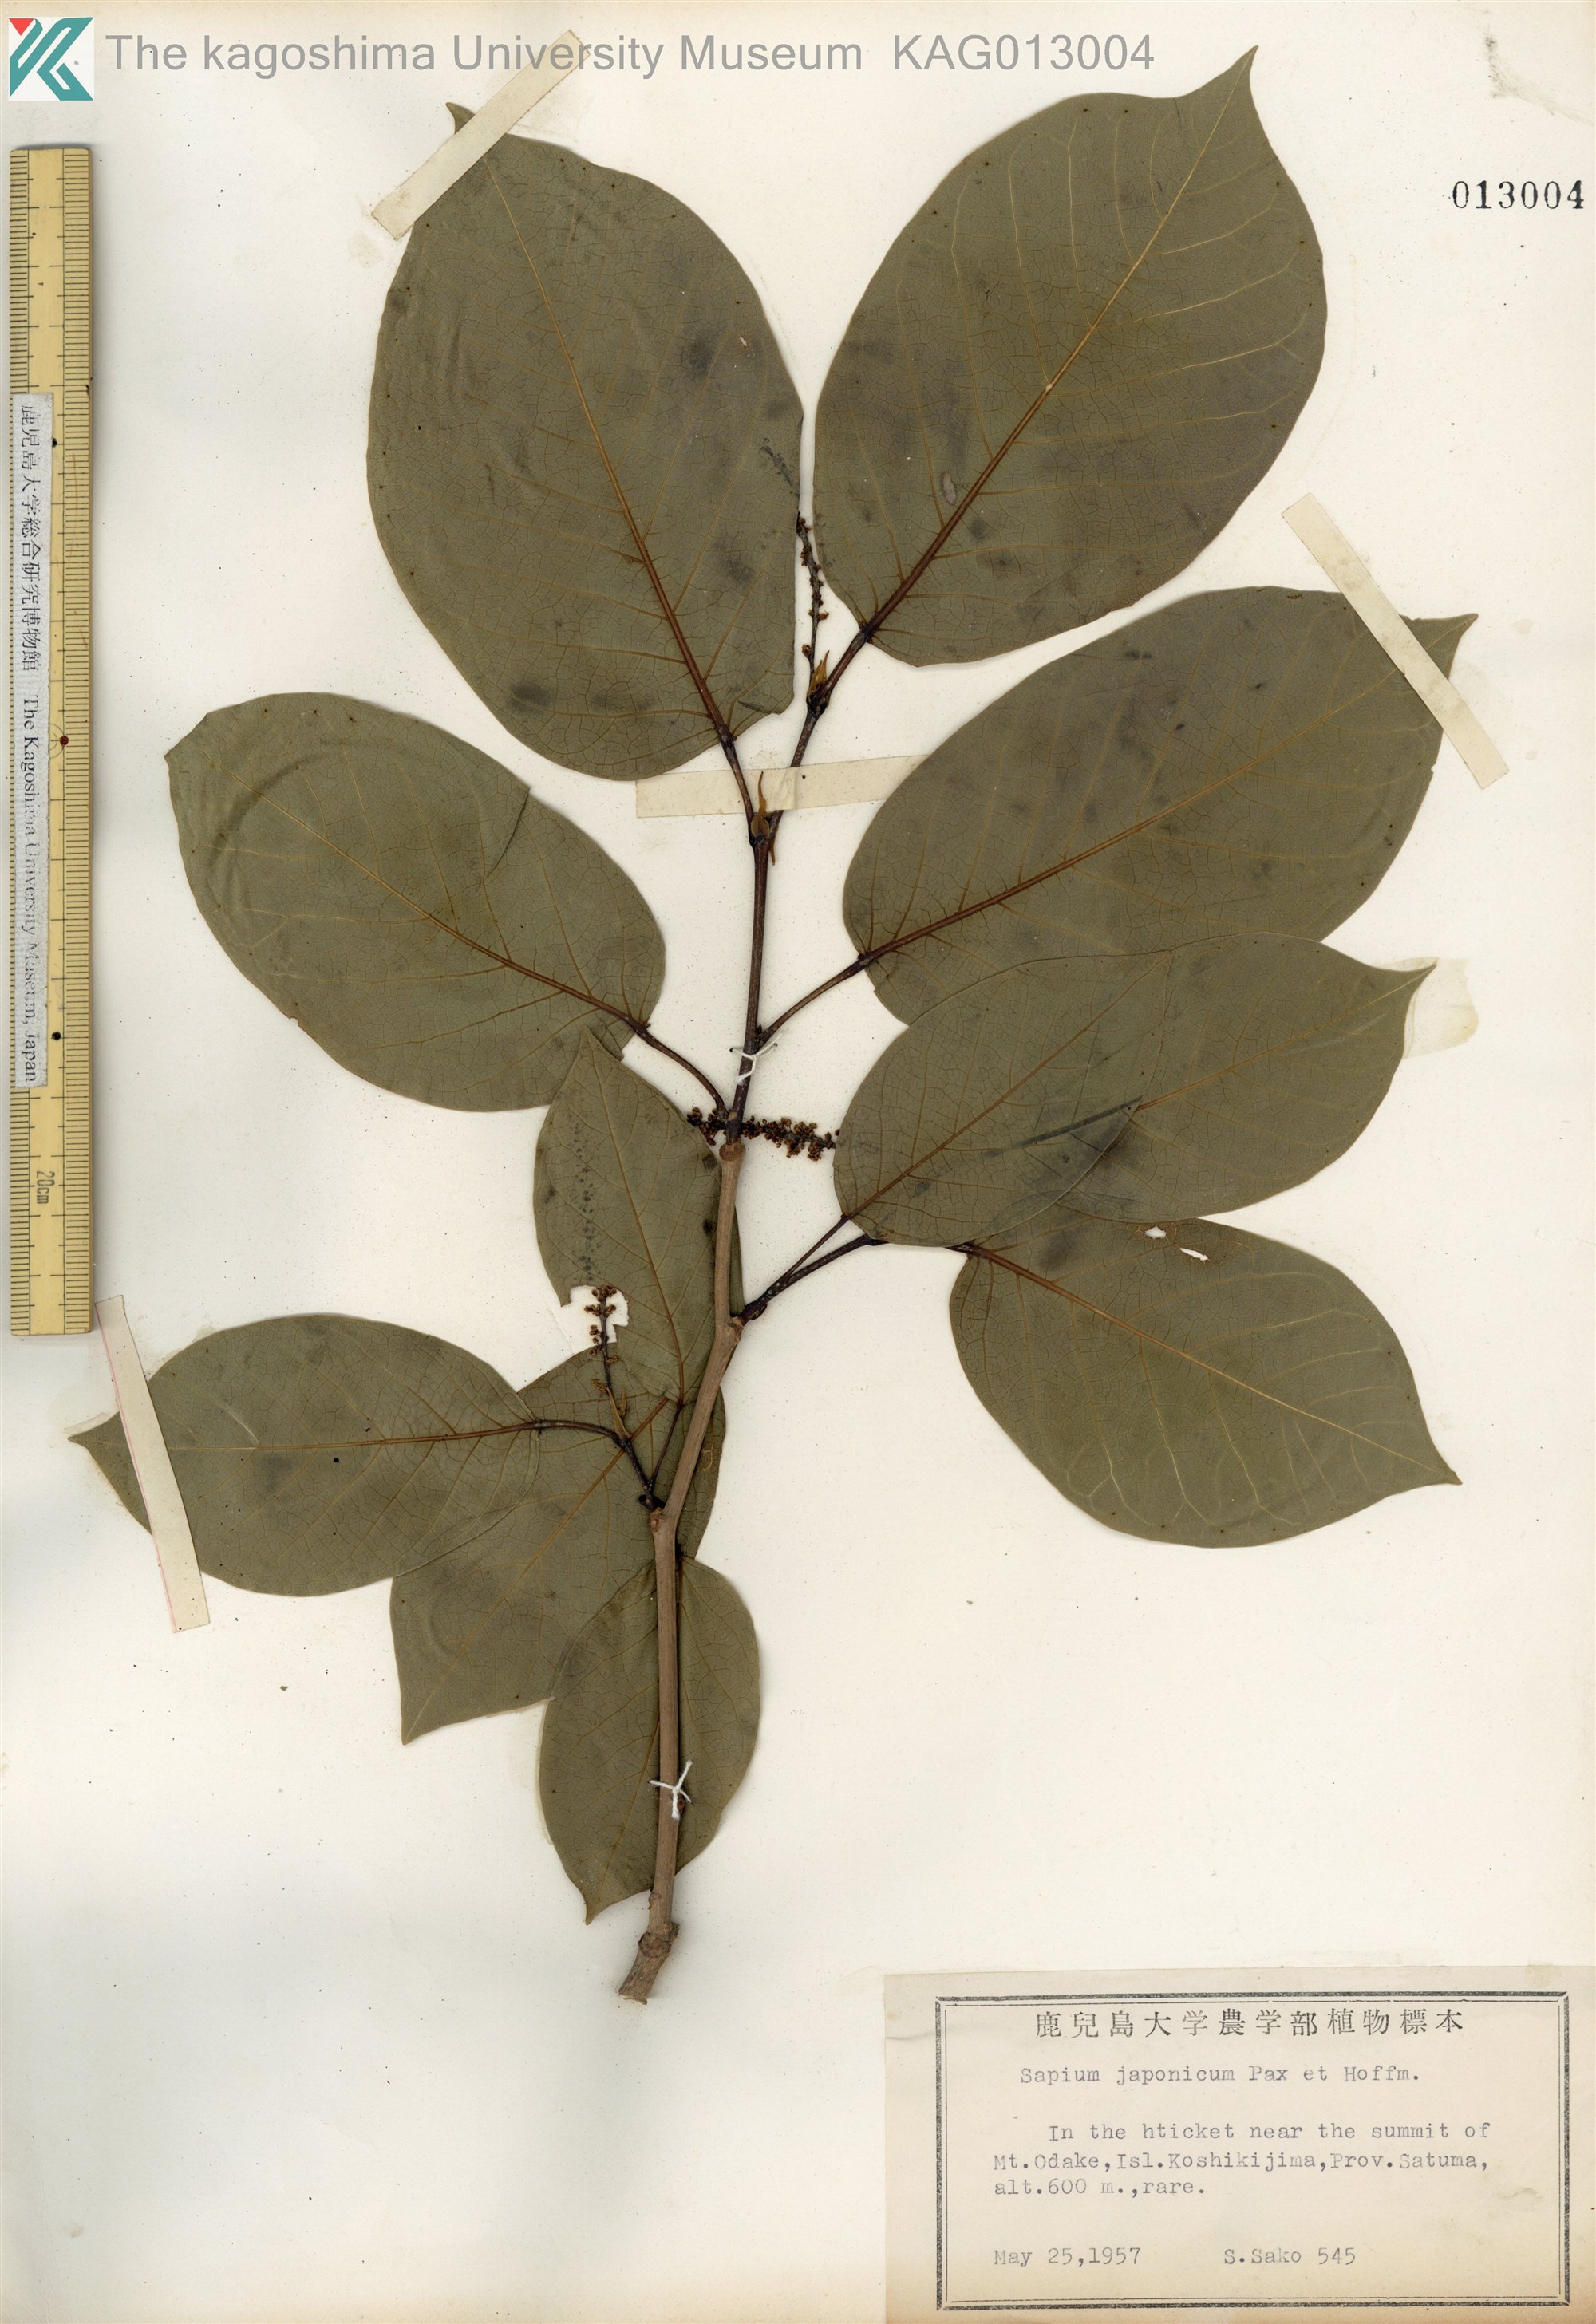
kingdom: Plantae
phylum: Tracheophyta
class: Magnoliopsida
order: Malpighiales
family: Euphorbiaceae
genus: Neoshirakia
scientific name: Neoshirakia japonica
